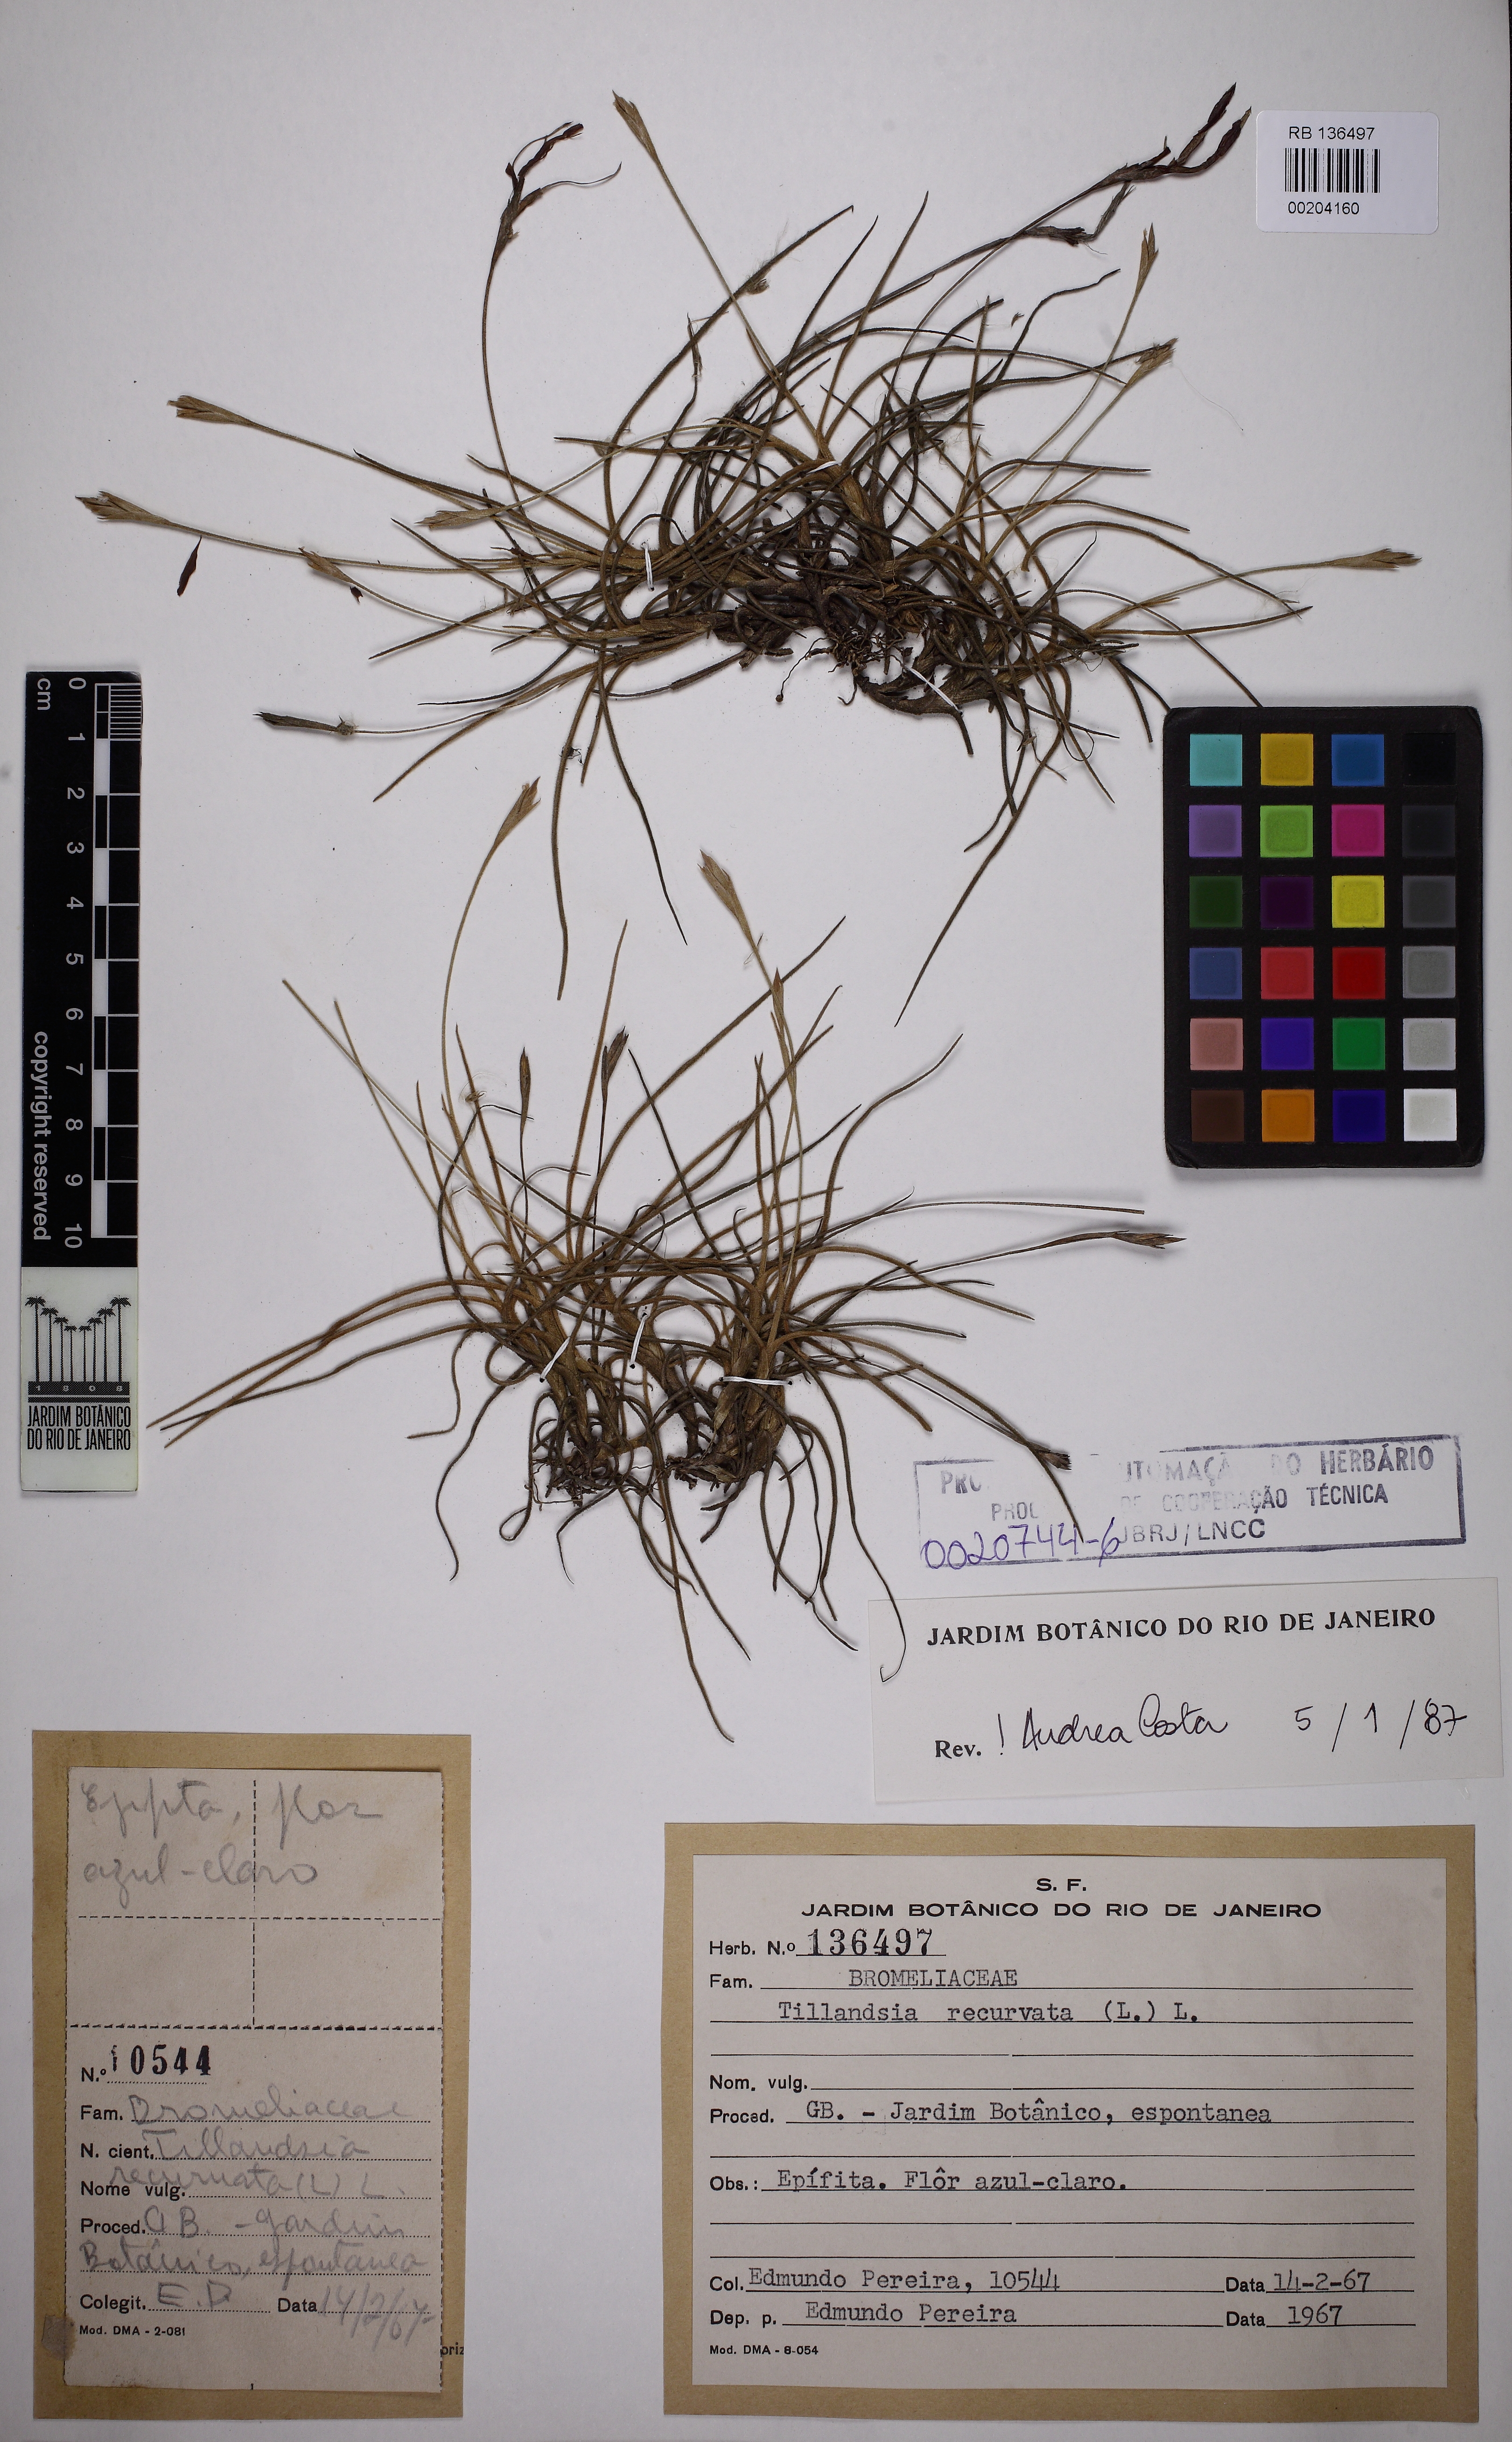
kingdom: Plantae
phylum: Tracheophyta
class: Liliopsida
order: Poales
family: Bromeliaceae
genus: Tillandsia
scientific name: Tillandsia recurvata
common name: Small ballmoss
